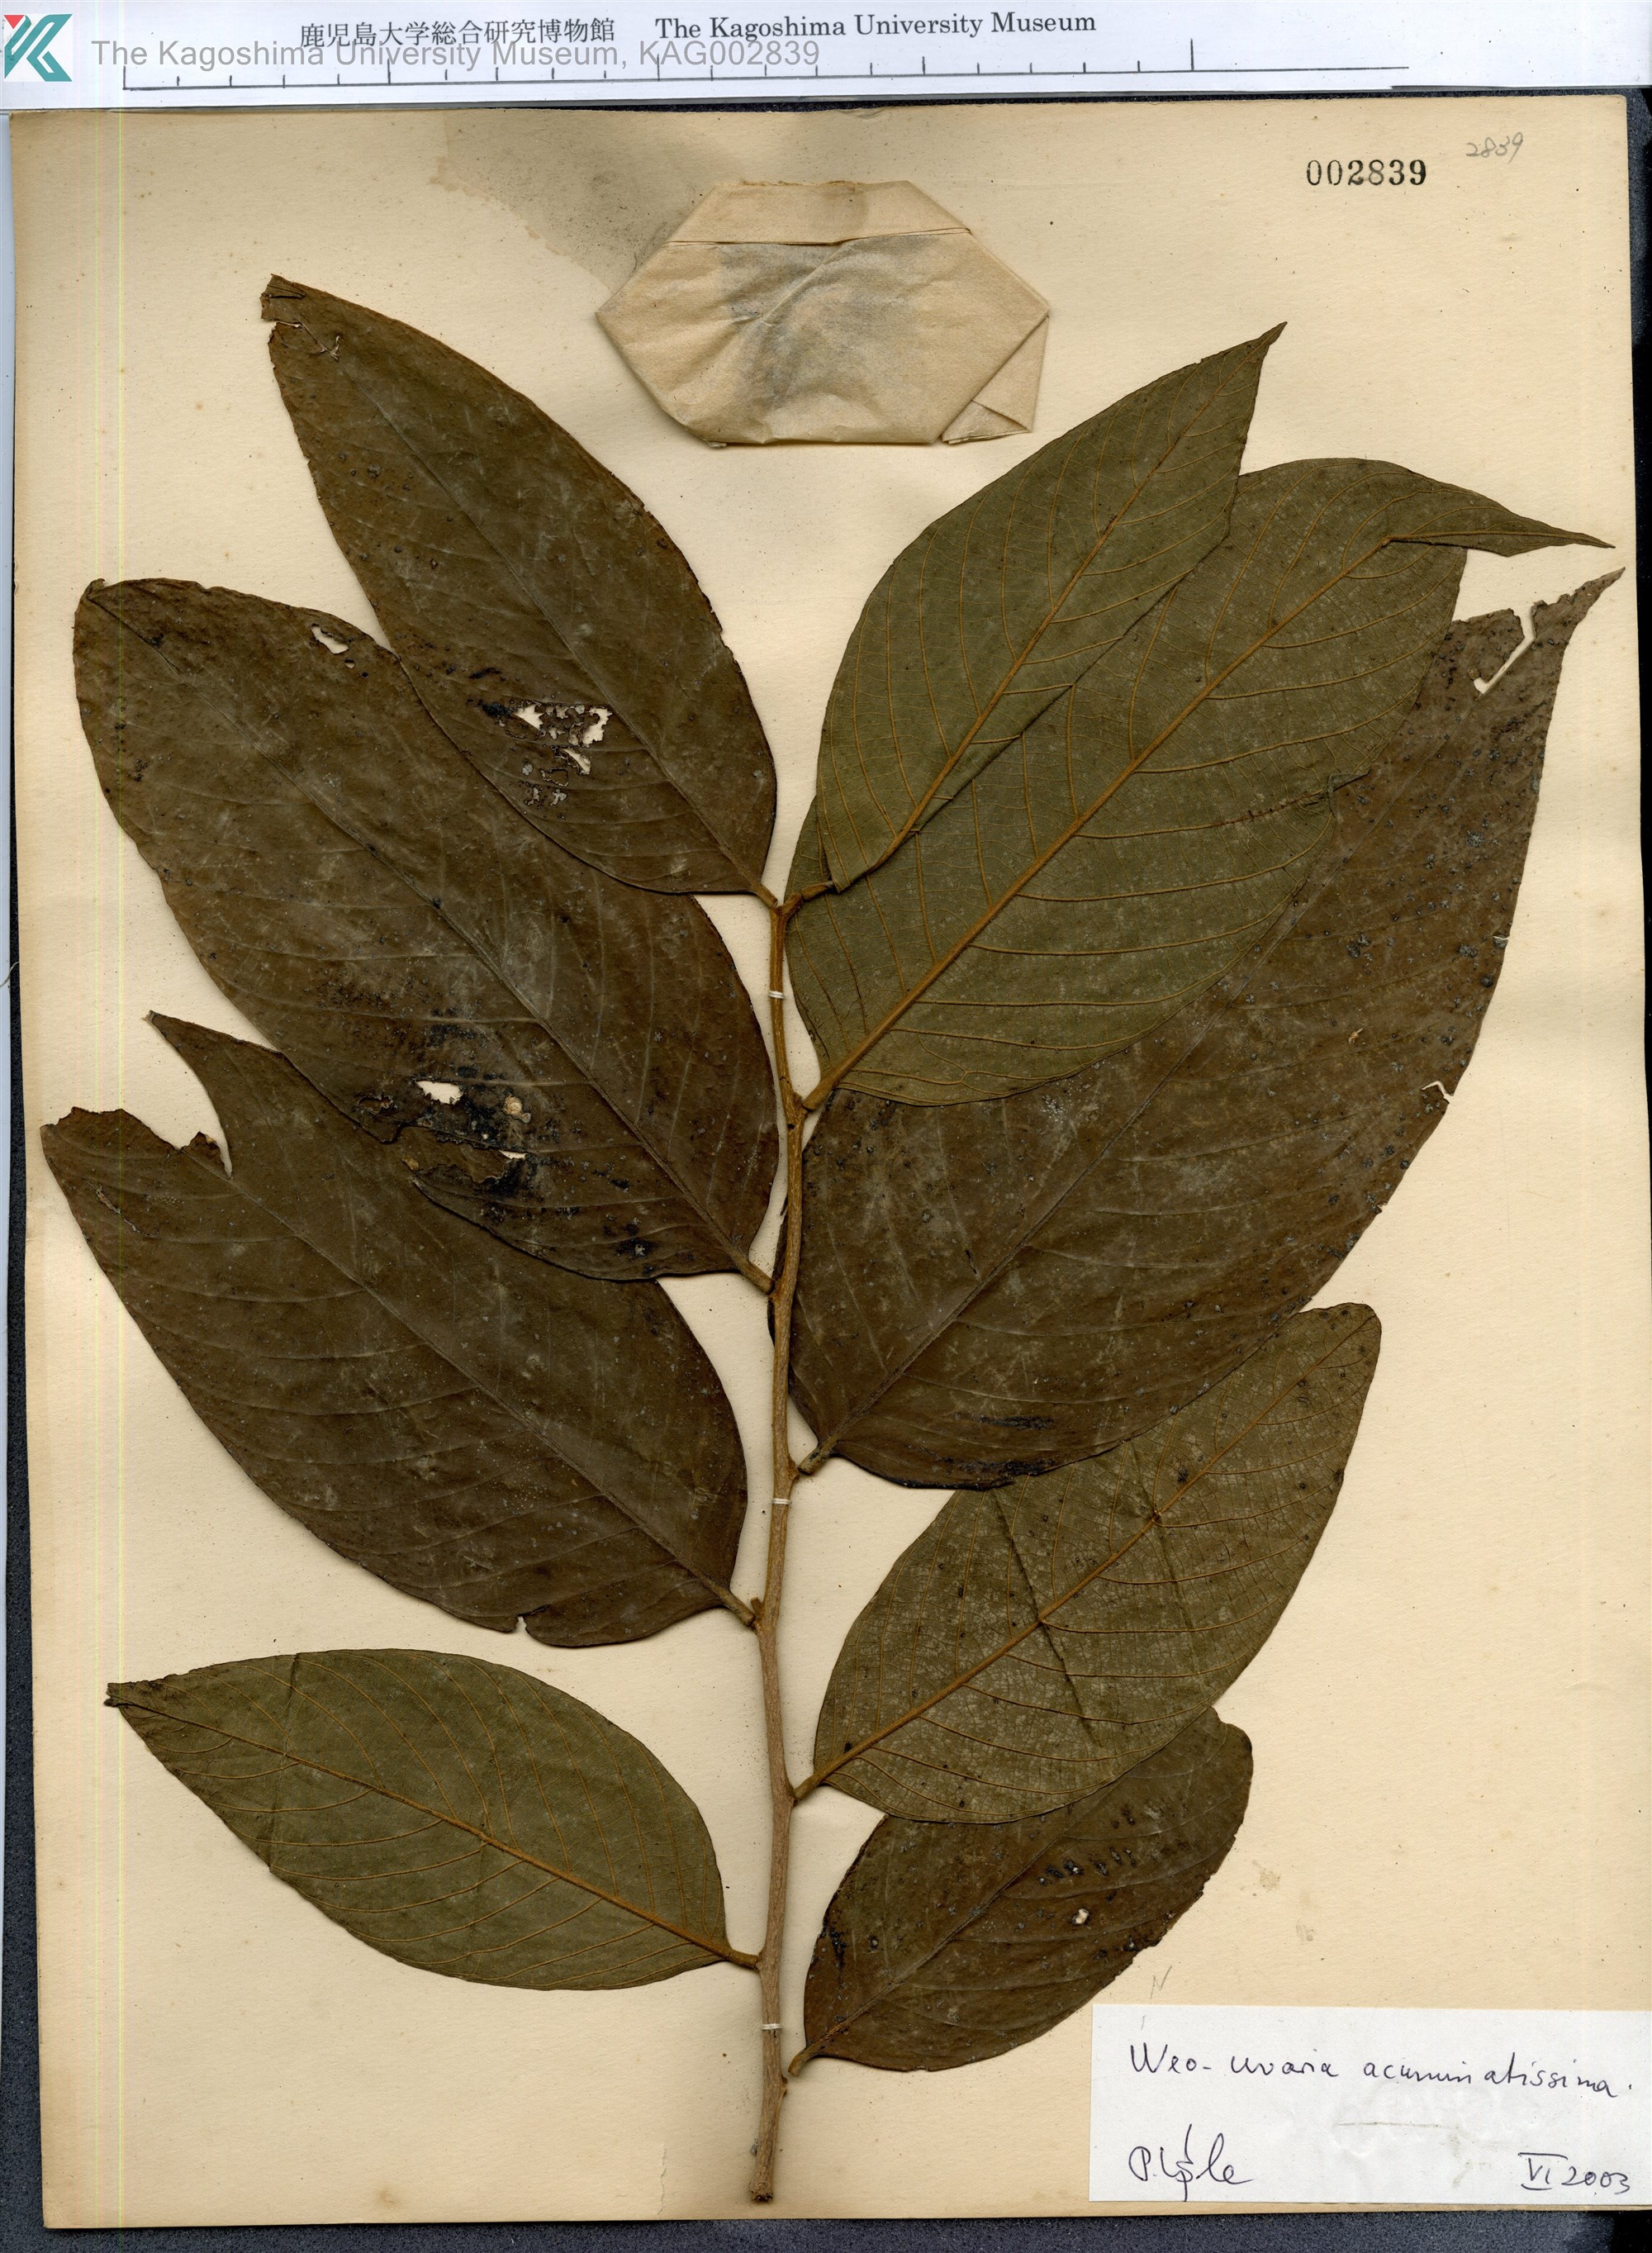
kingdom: Plantae
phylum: Tracheophyta
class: Magnoliopsida
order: Magnoliales
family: Annonaceae
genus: Neouvaria
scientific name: Neouvaria acuminatissima
